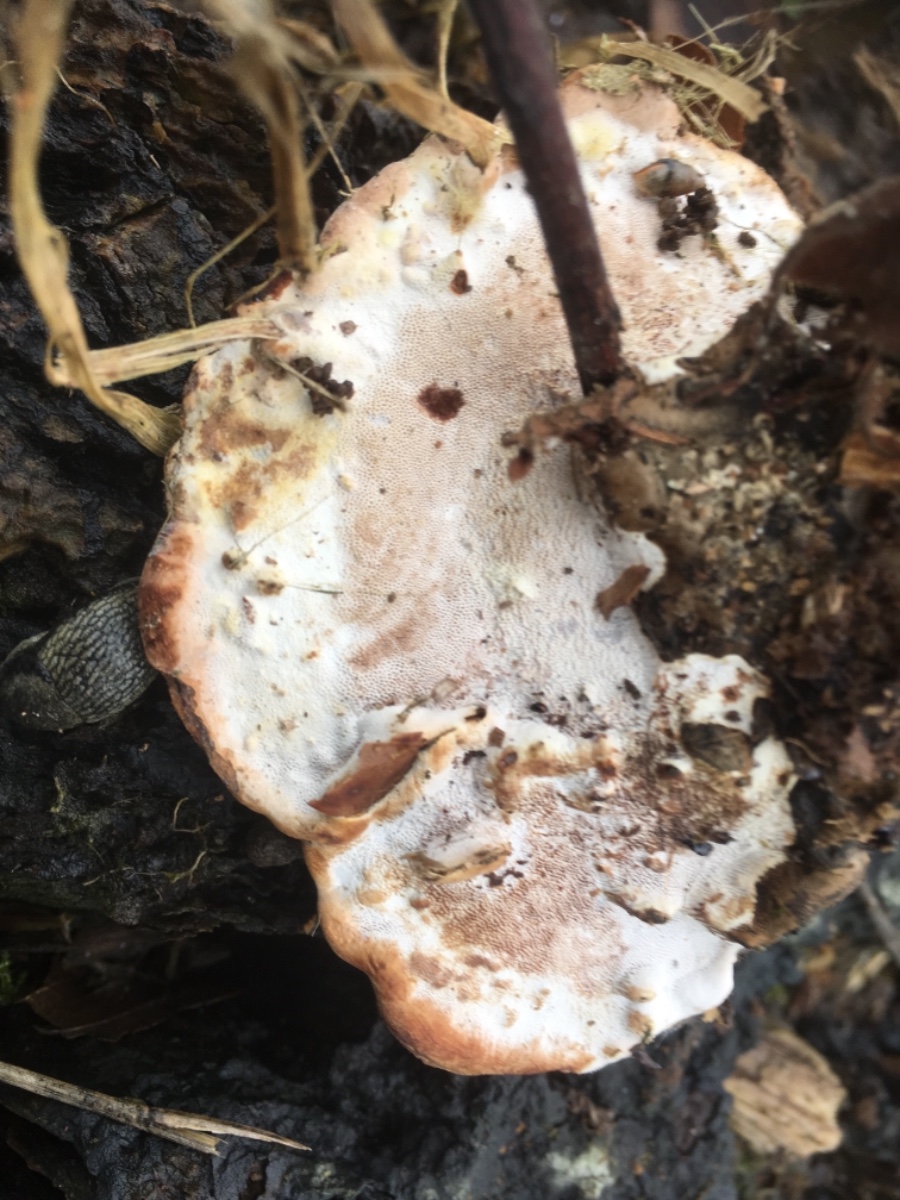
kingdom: Fungi
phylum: Basidiomycota
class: Agaricomycetes
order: Polyporales
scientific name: Polyporales
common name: poresvampordenen
